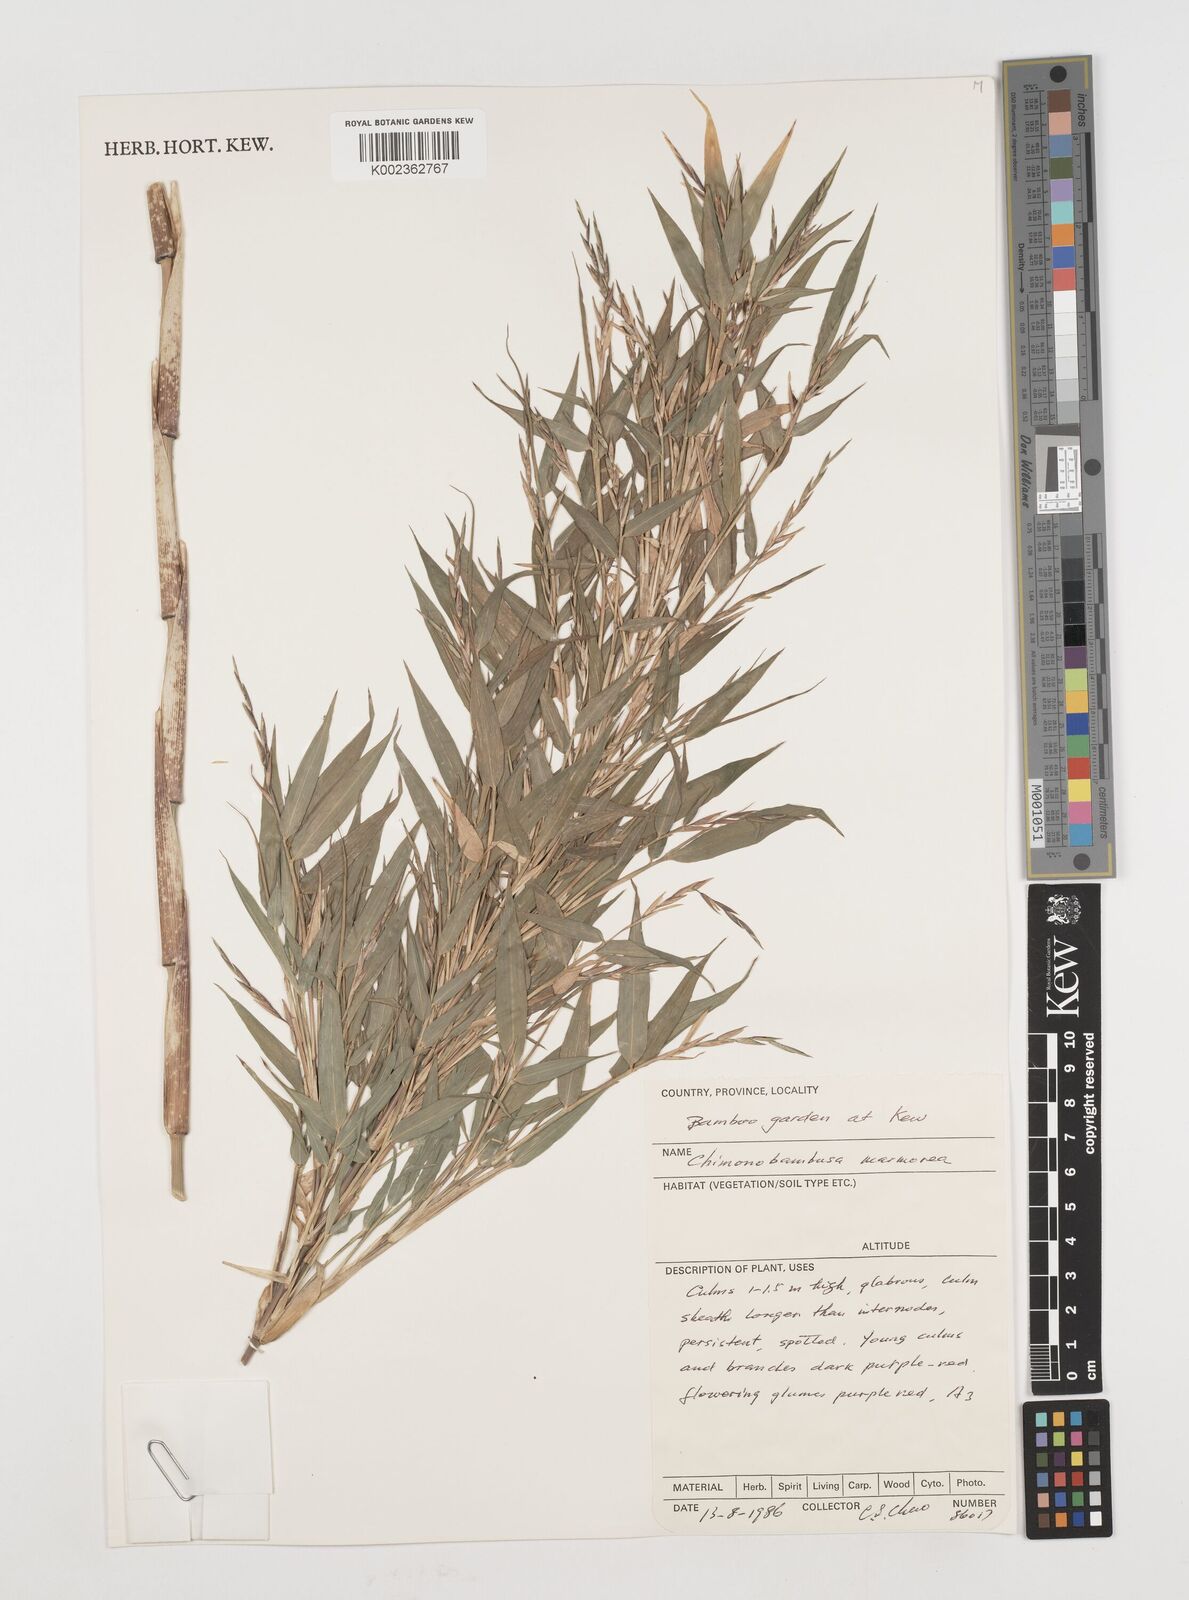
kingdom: Plantae
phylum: Tracheophyta
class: Liliopsida
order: Poales
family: Poaceae
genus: Chimonobambusa
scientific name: Chimonobambusa marmorea
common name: Marbled bamboo
